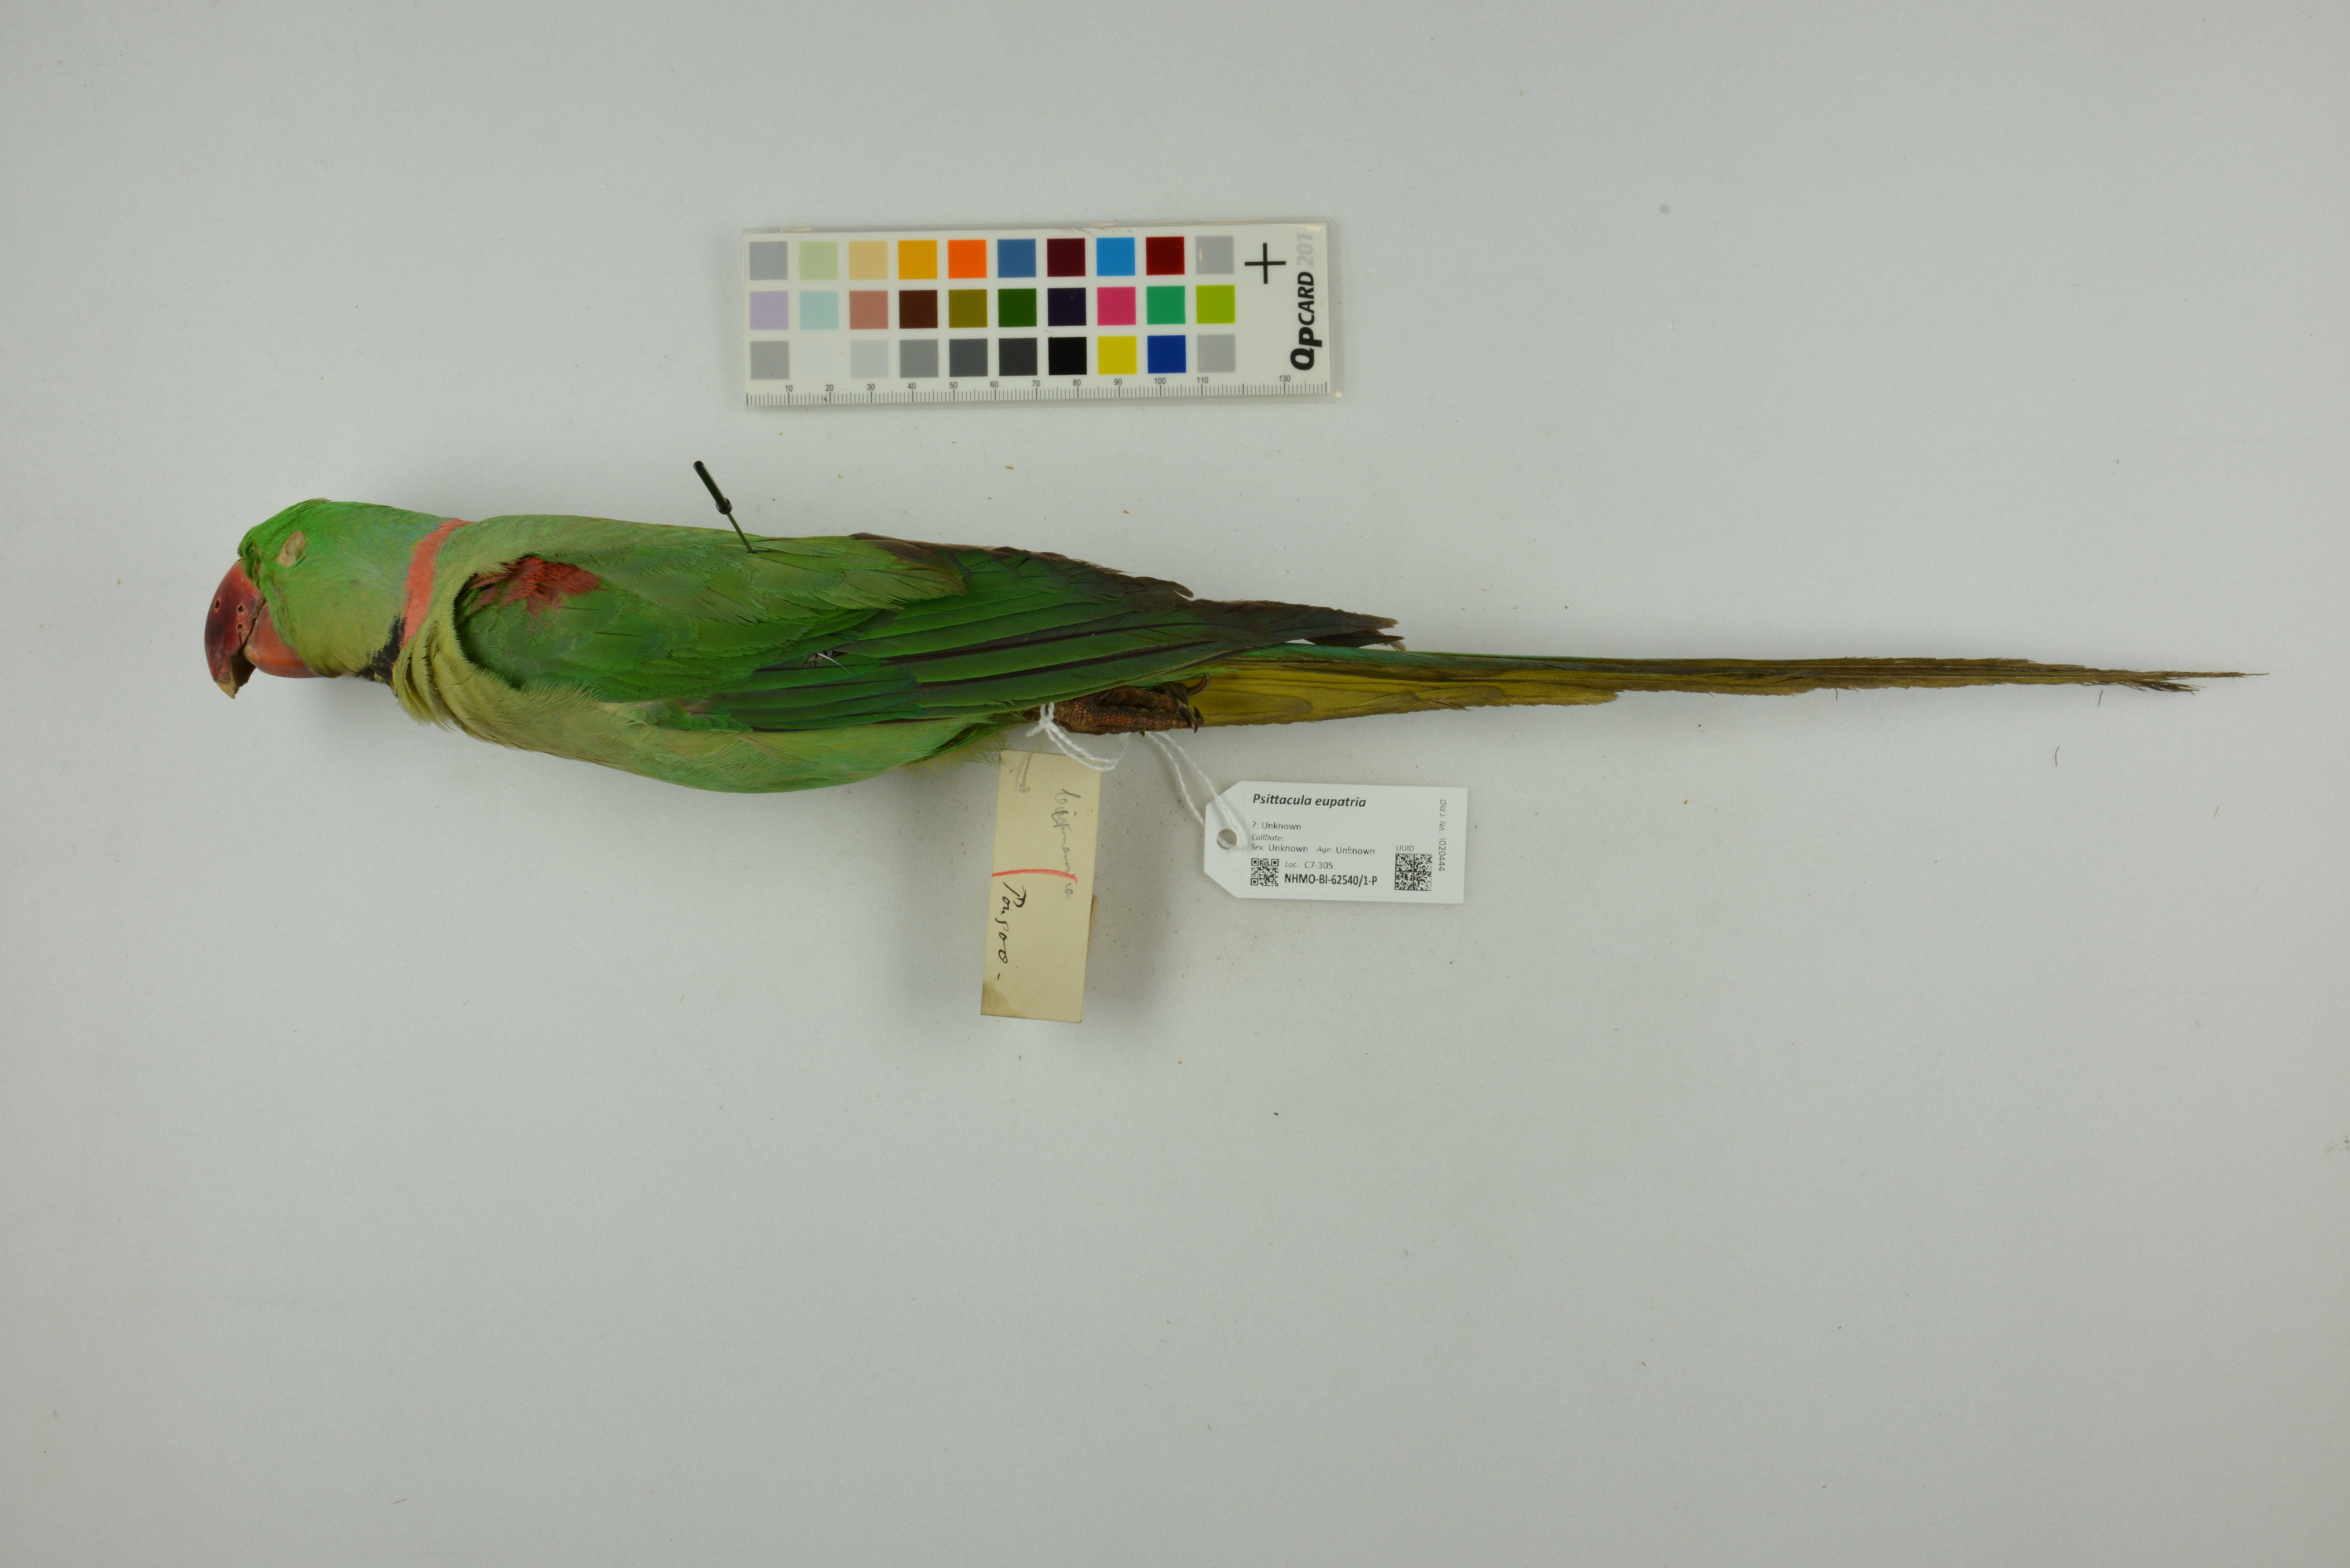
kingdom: Animalia
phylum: Chordata
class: Aves
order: Psittaciformes
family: Psittacidae
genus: Psittacula
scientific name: Psittacula eupatria
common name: Alexandrine parakeet
